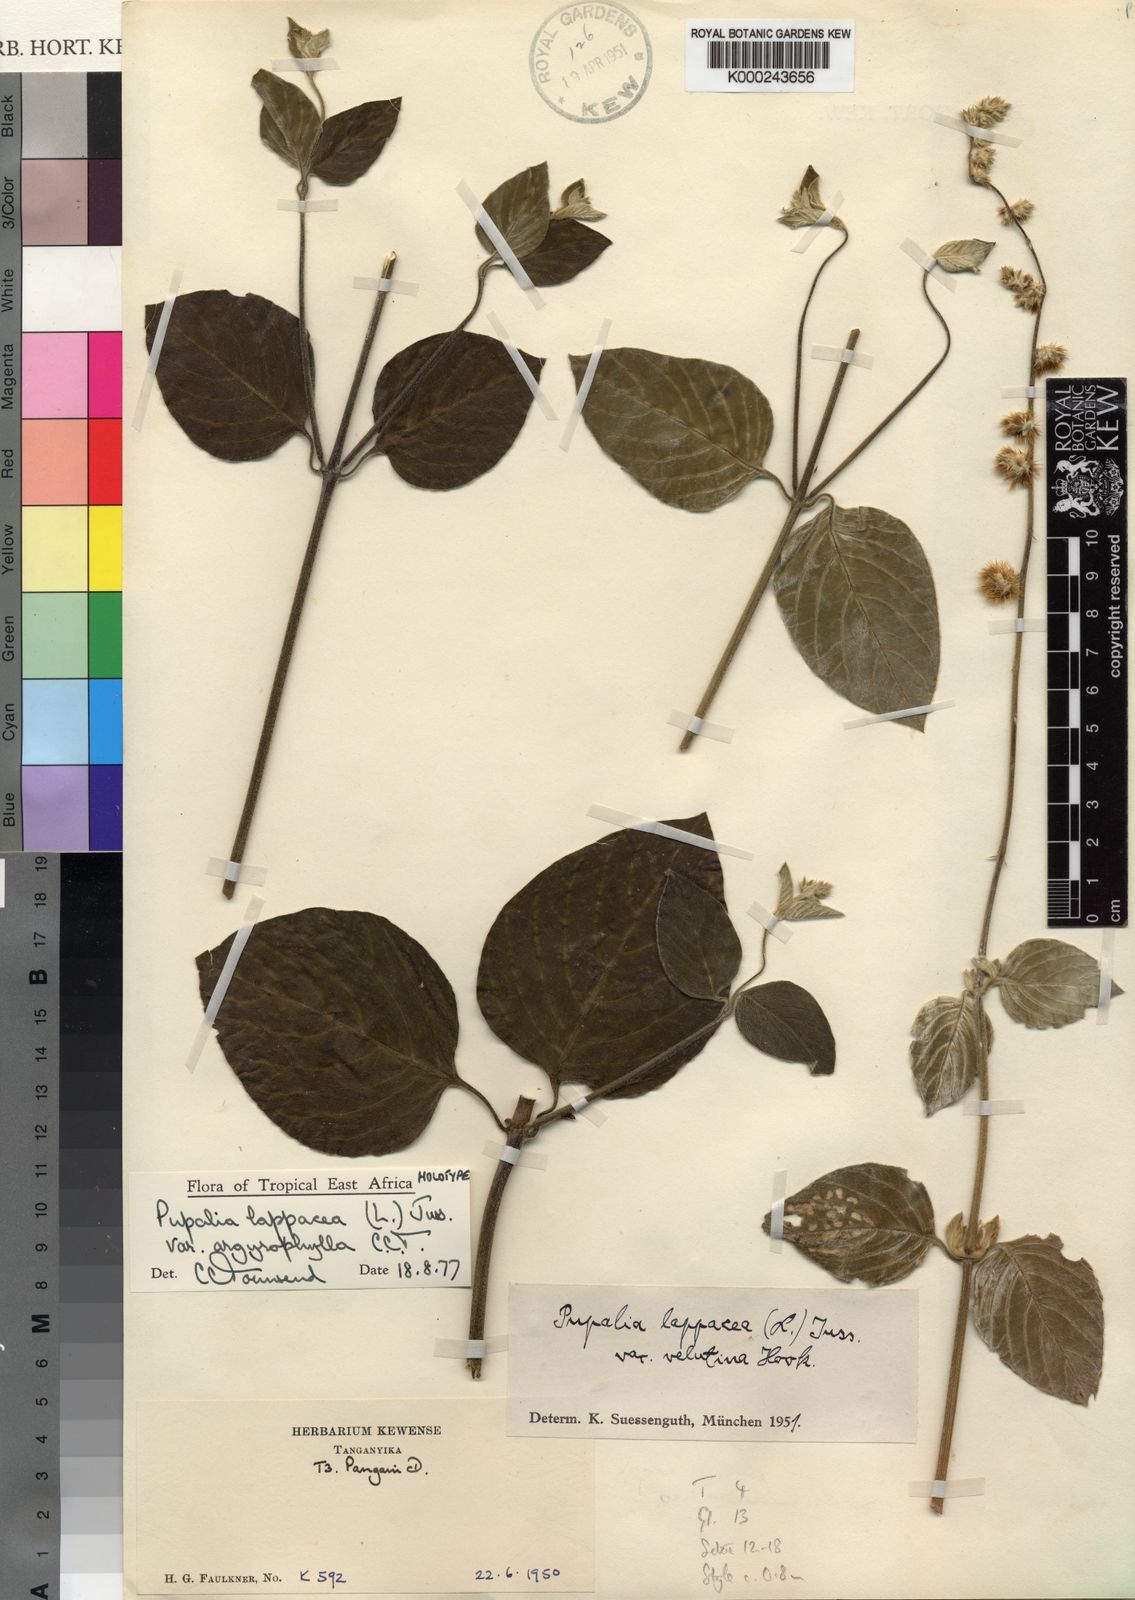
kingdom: Plantae
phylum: Tracheophyta
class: Magnoliopsida
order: Caryophyllales
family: Amaranthaceae
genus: Pupalia
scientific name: Pupalia lappacea
